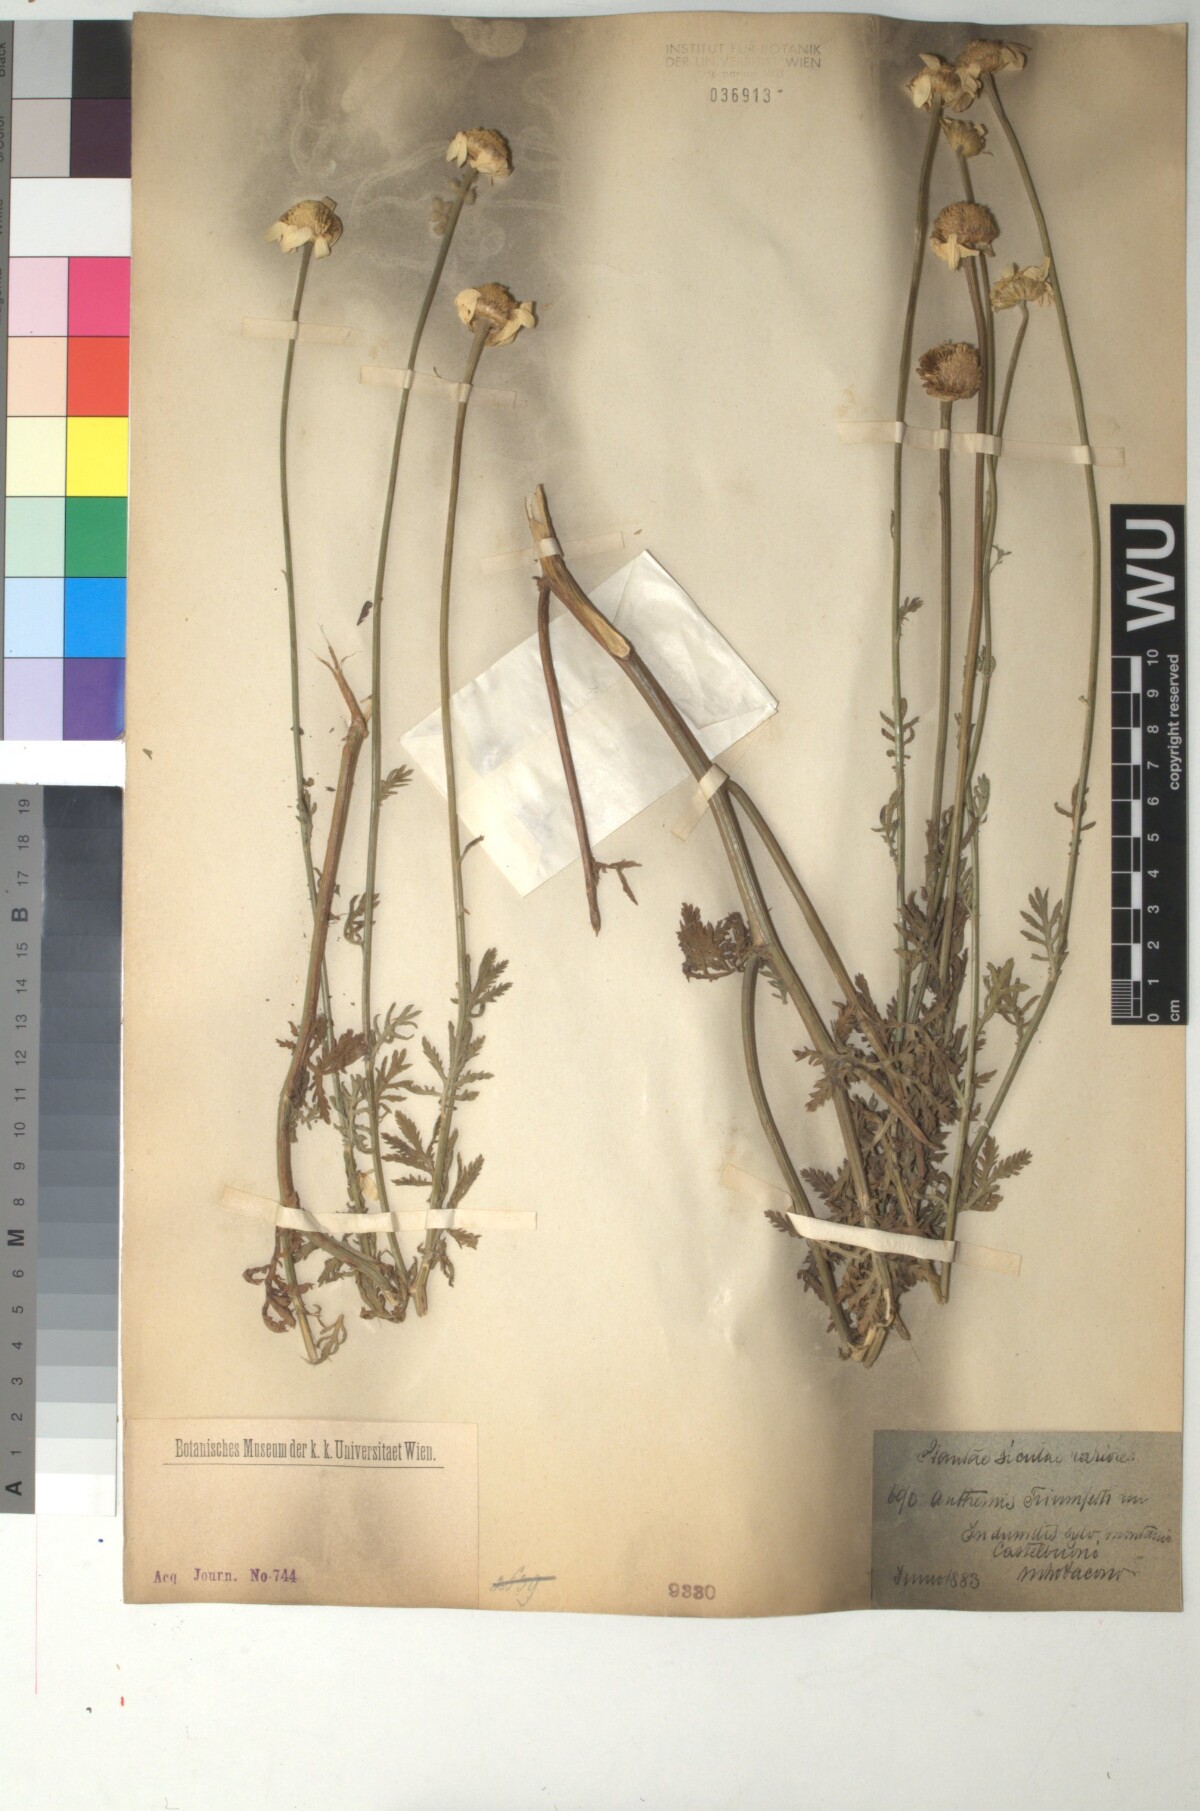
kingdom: Plantae
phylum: Tracheophyta
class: Magnoliopsida
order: Asterales
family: Asteraceae
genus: Cota
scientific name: Cota triumfetti
